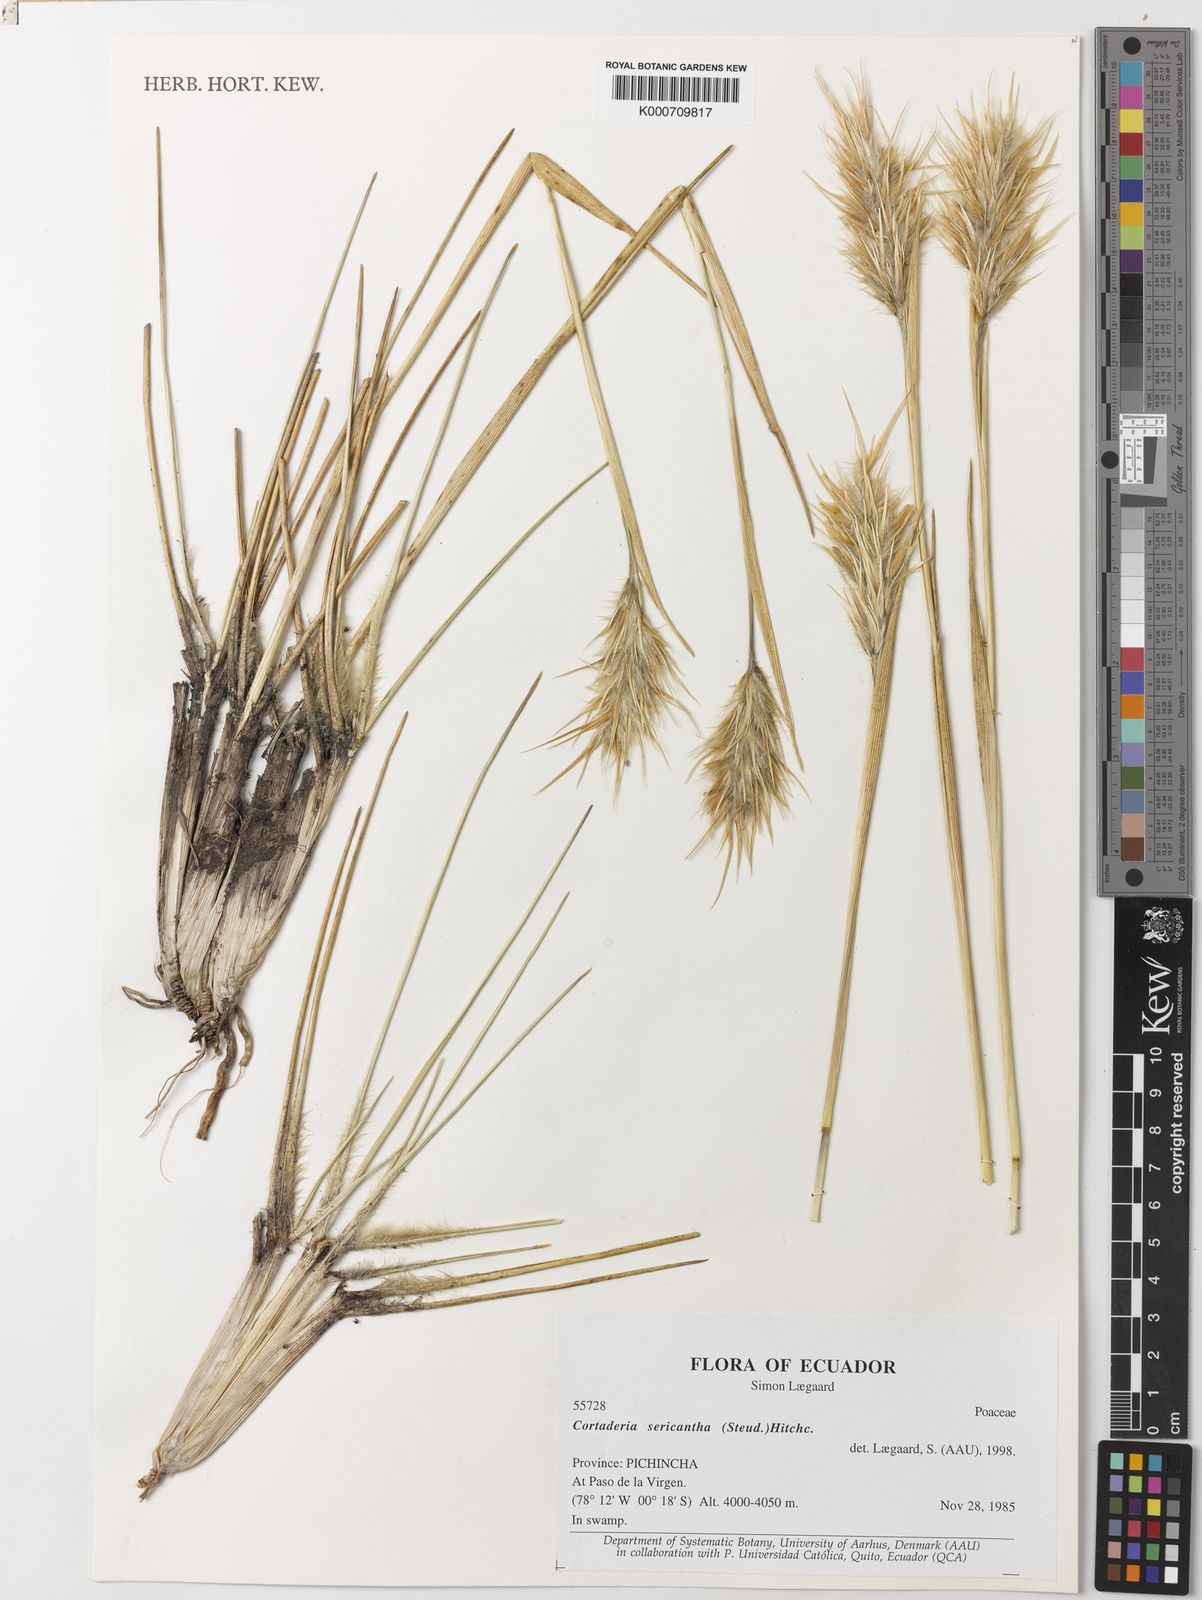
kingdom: Plantae
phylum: Tracheophyta
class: Liliopsida
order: Poales
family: Poaceae
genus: Cortaderia
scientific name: Cortaderia sericantha
